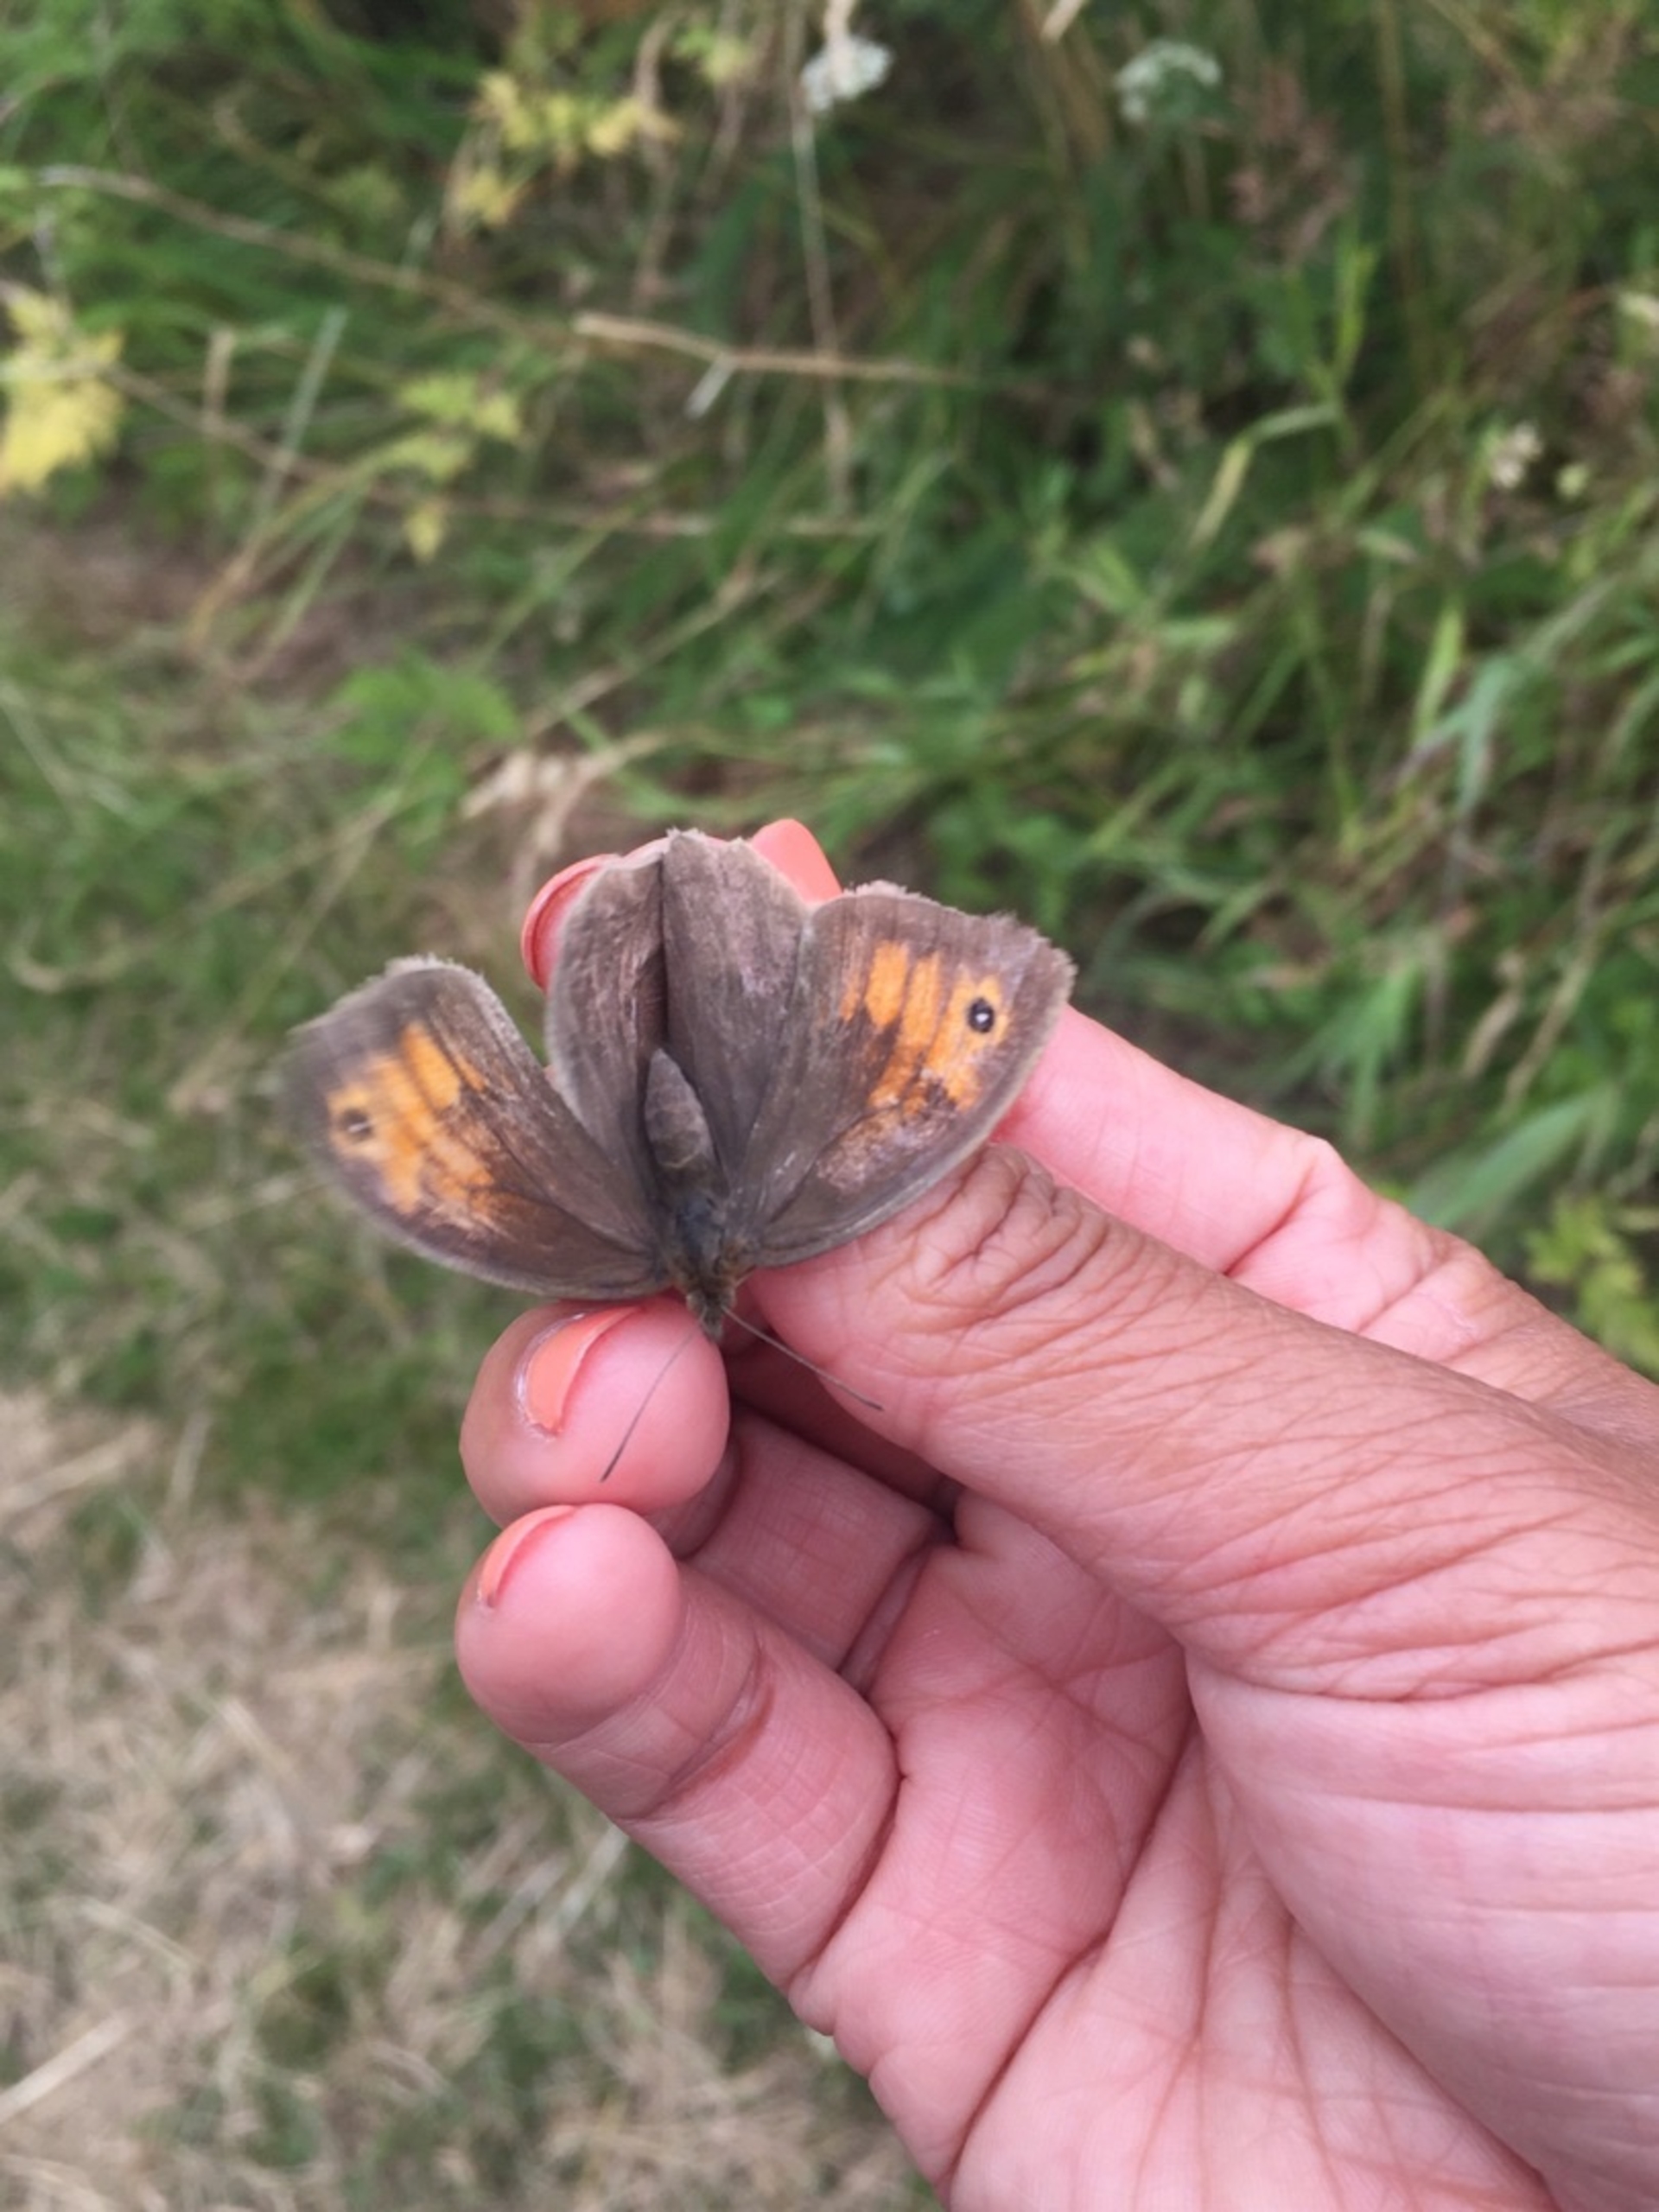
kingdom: Animalia
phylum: Arthropoda
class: Insecta
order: Lepidoptera
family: Nymphalidae
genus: Maniola
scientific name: Maniola jurtina
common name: Græsrandøje
